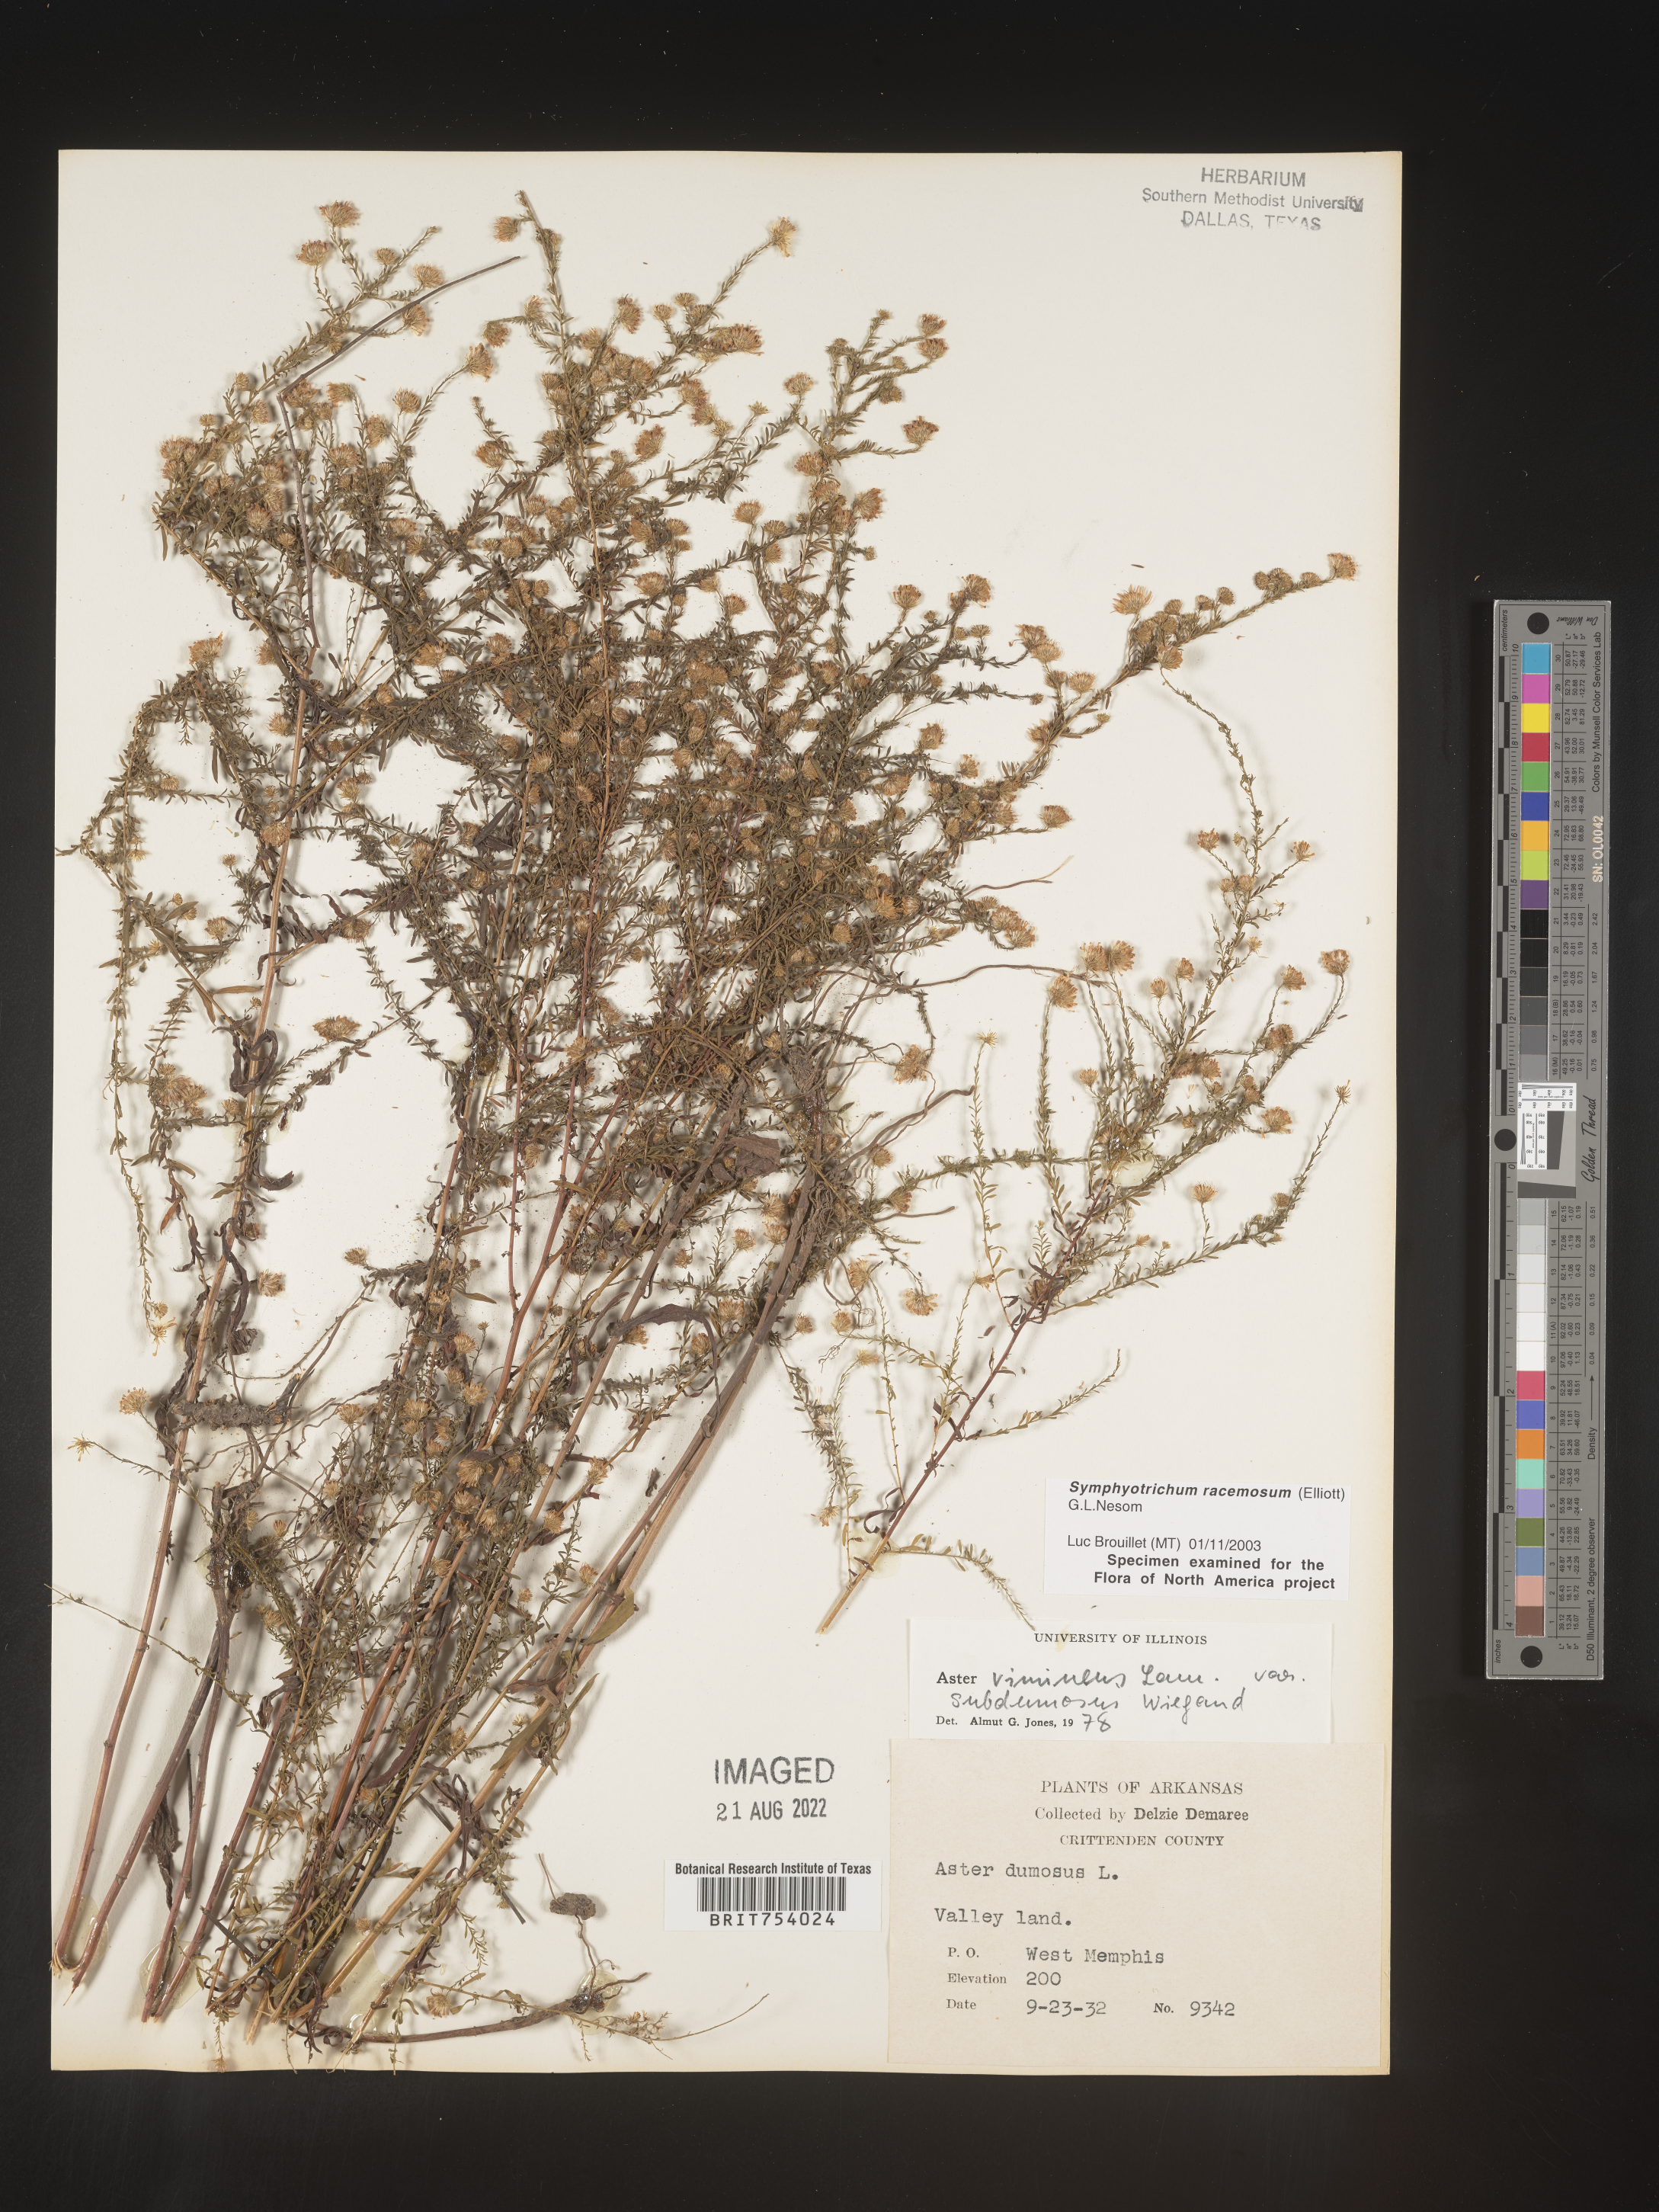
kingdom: Plantae
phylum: Tracheophyta
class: Magnoliopsida
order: Asterales
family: Asteraceae
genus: Symphyotrichum
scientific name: Symphyotrichum racemosum
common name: Small white aster
